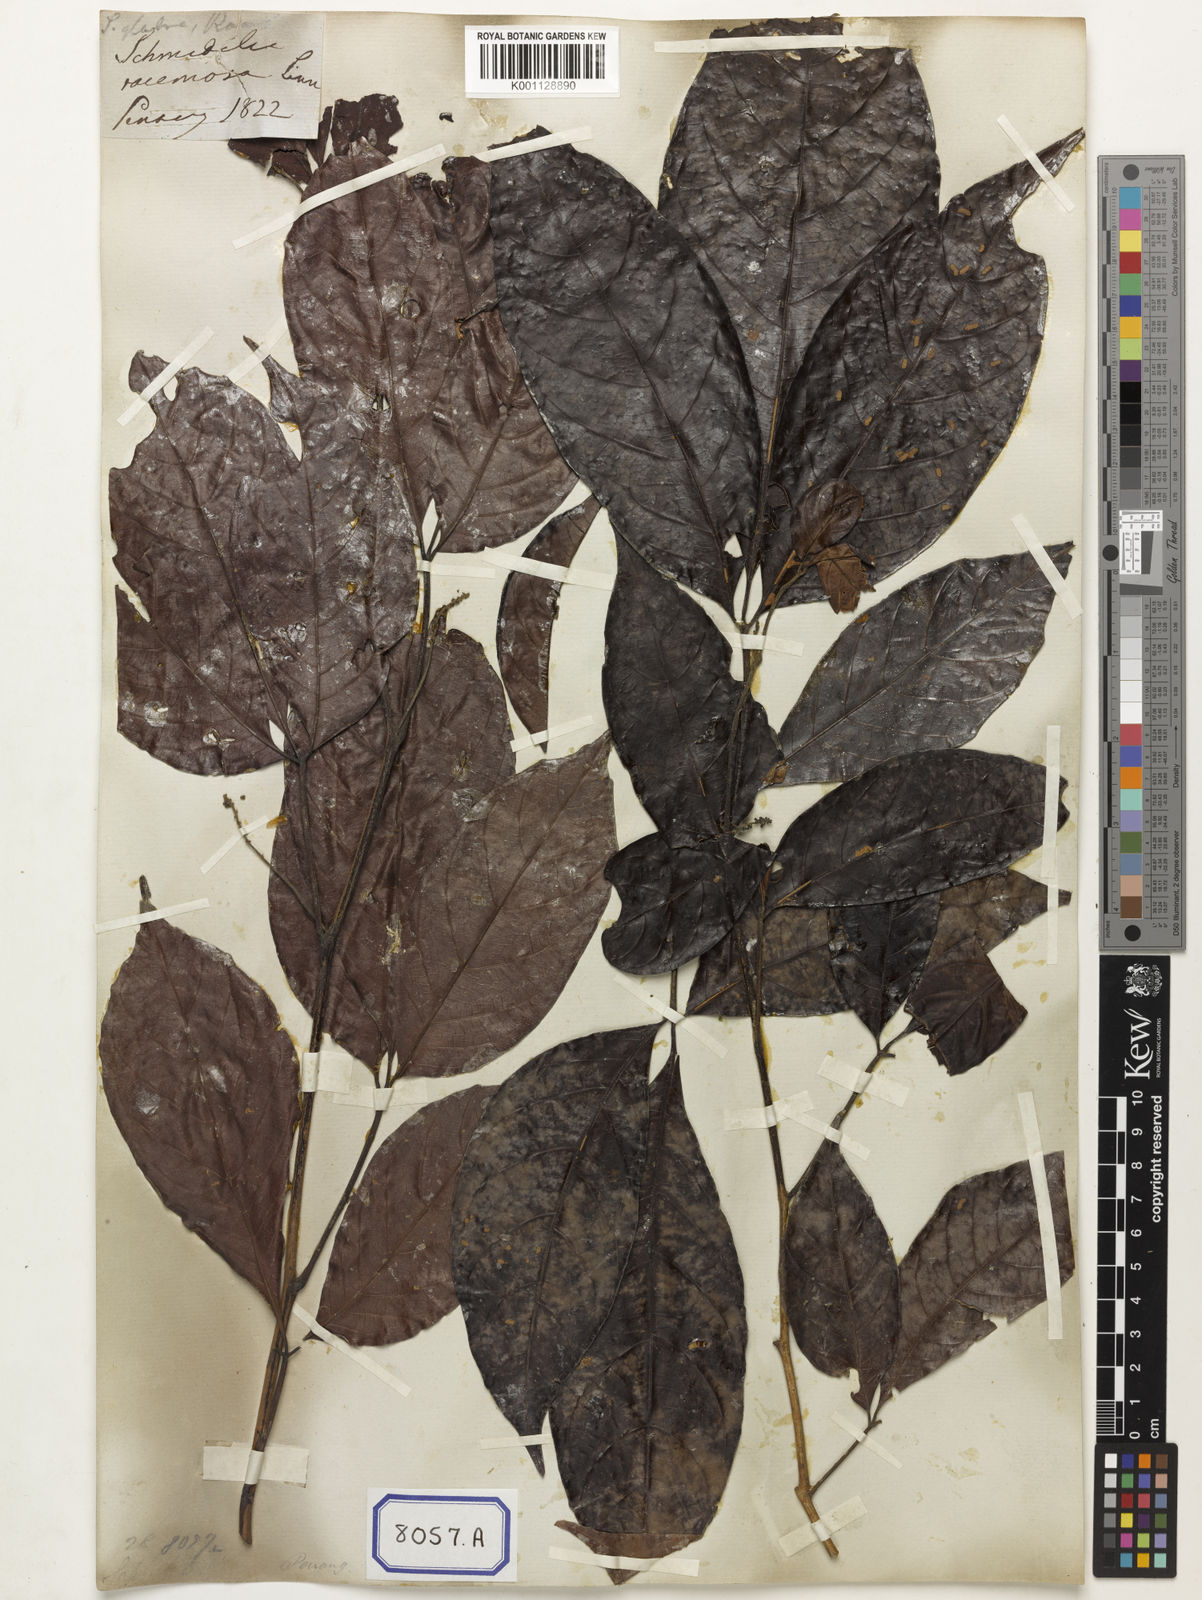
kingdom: Plantae
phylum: Tracheophyta
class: Magnoliopsida
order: Malpighiales
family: Calophyllaceae
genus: Calophyllum
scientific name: Calophyllum
